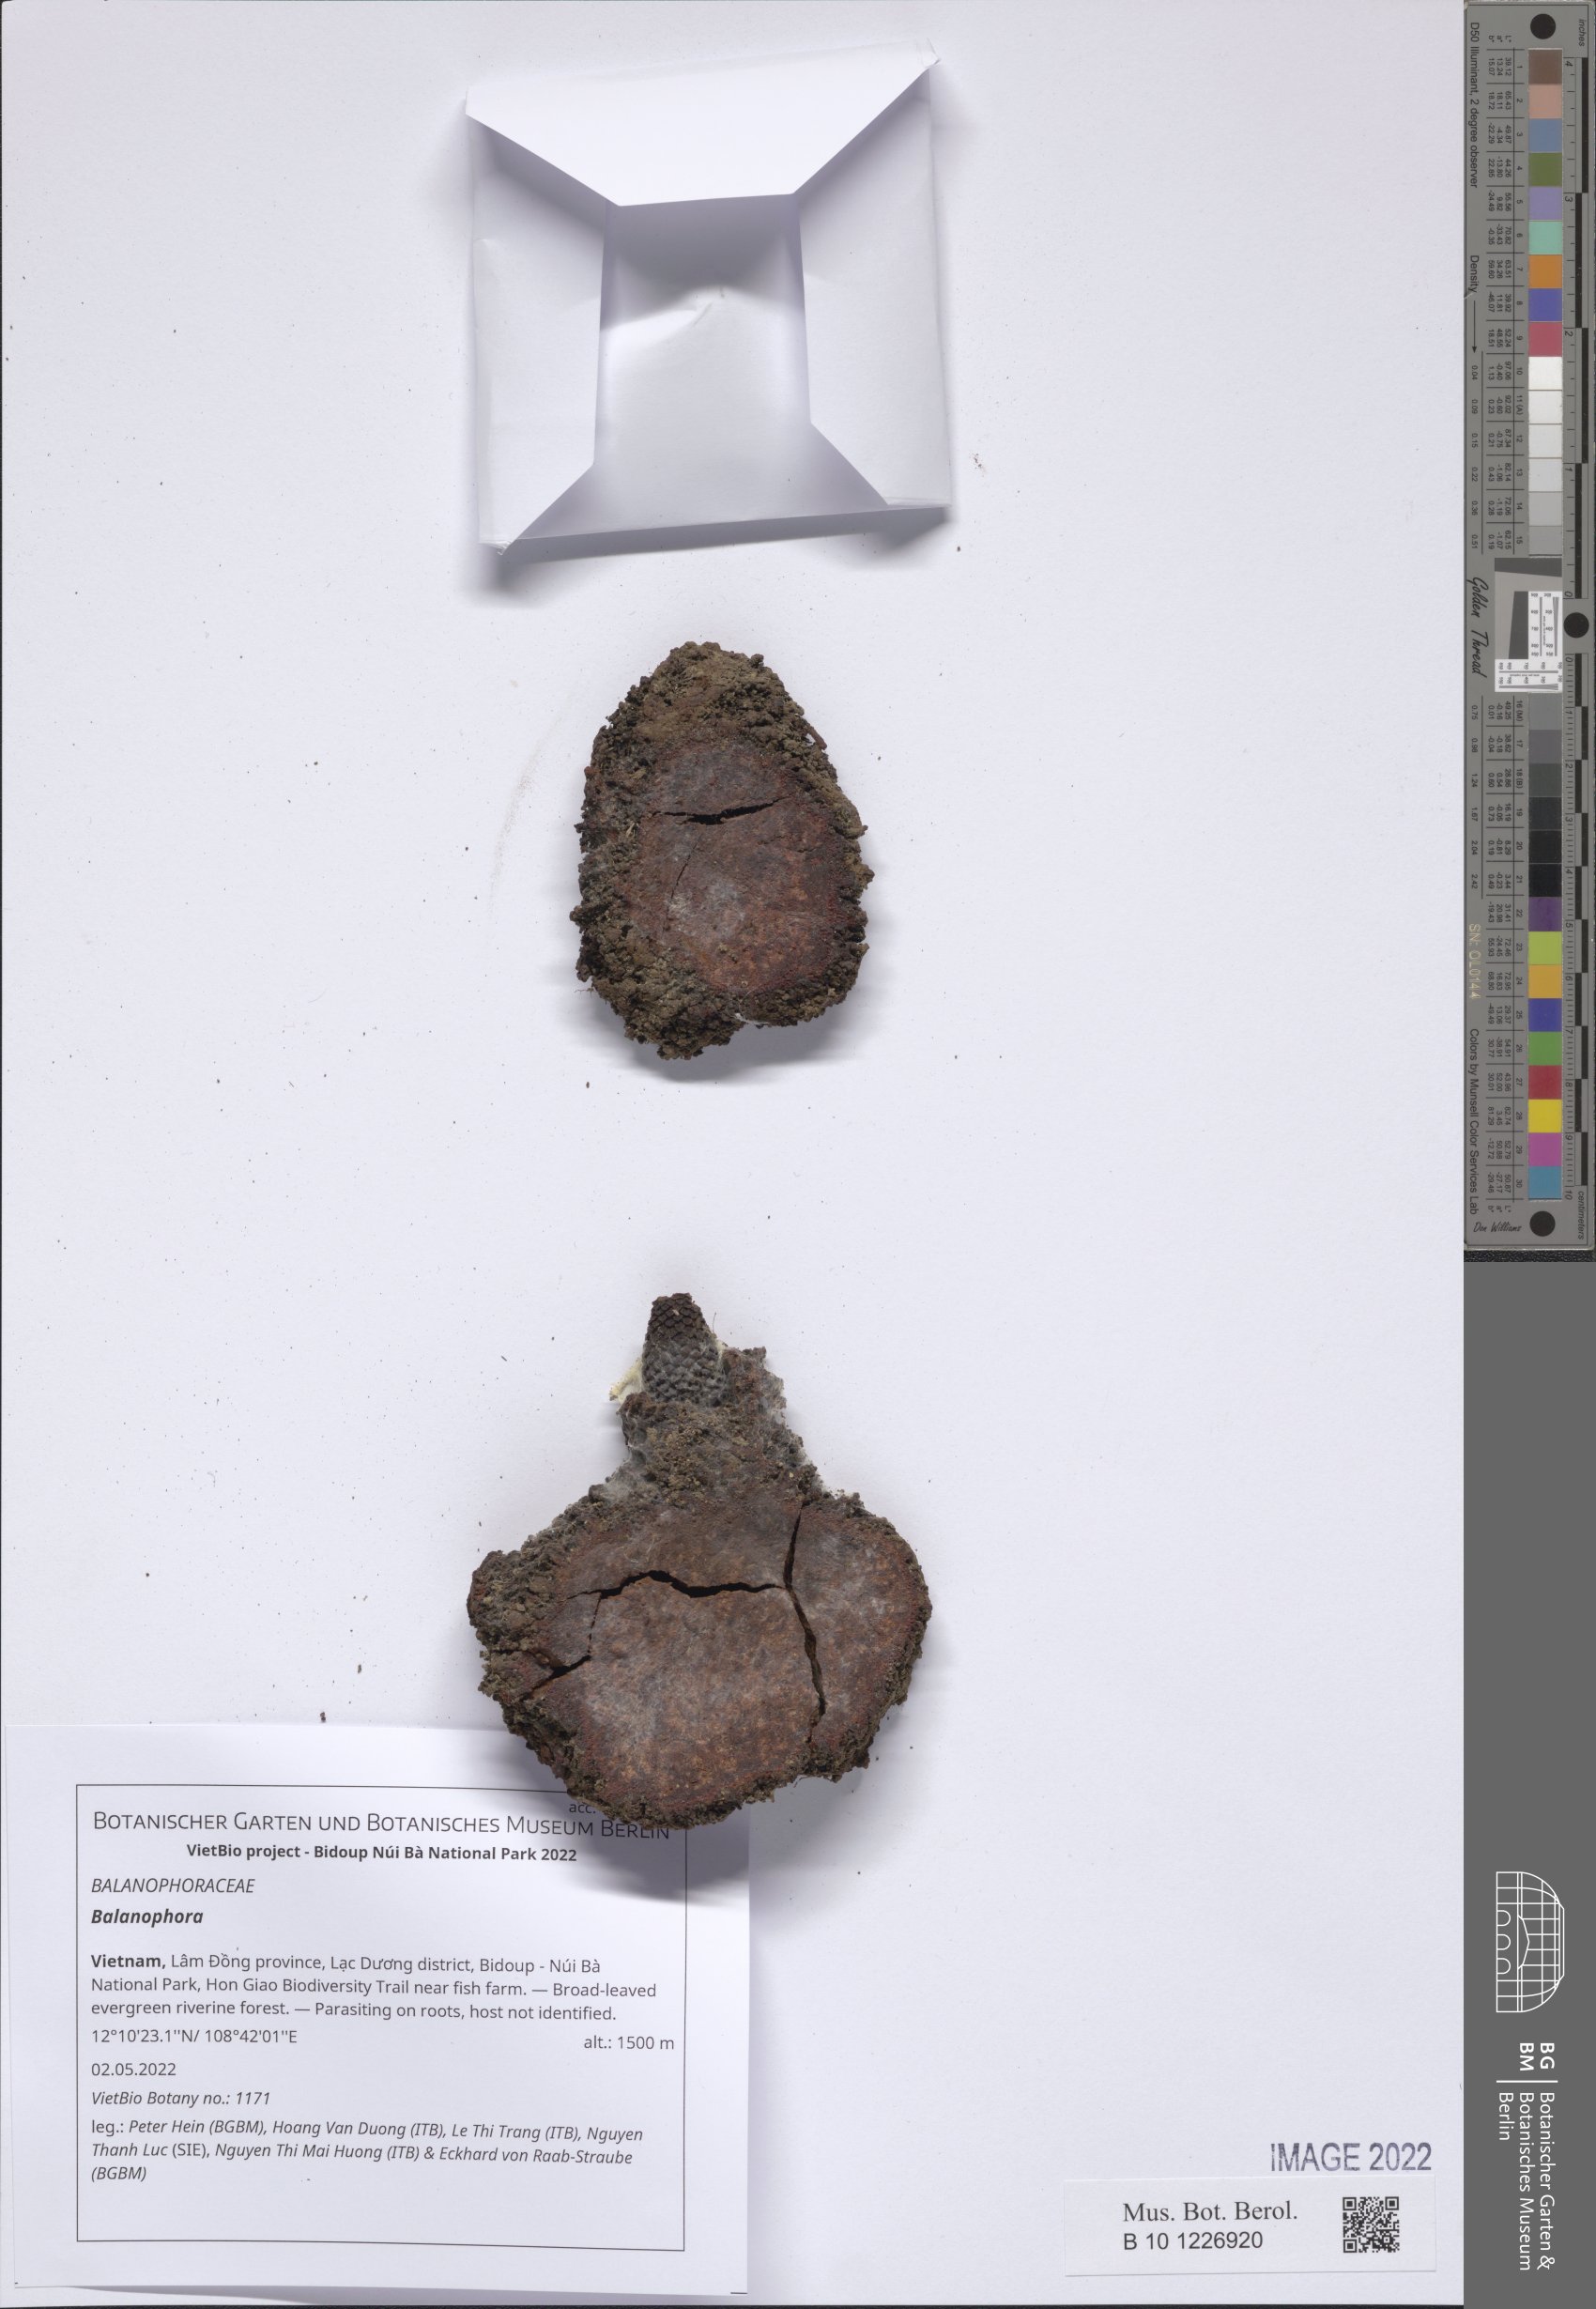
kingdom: Plantae
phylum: Tracheophyta
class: Magnoliopsida
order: Santalales
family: Balanophoraceae
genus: Balanophora
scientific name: Balanophora
